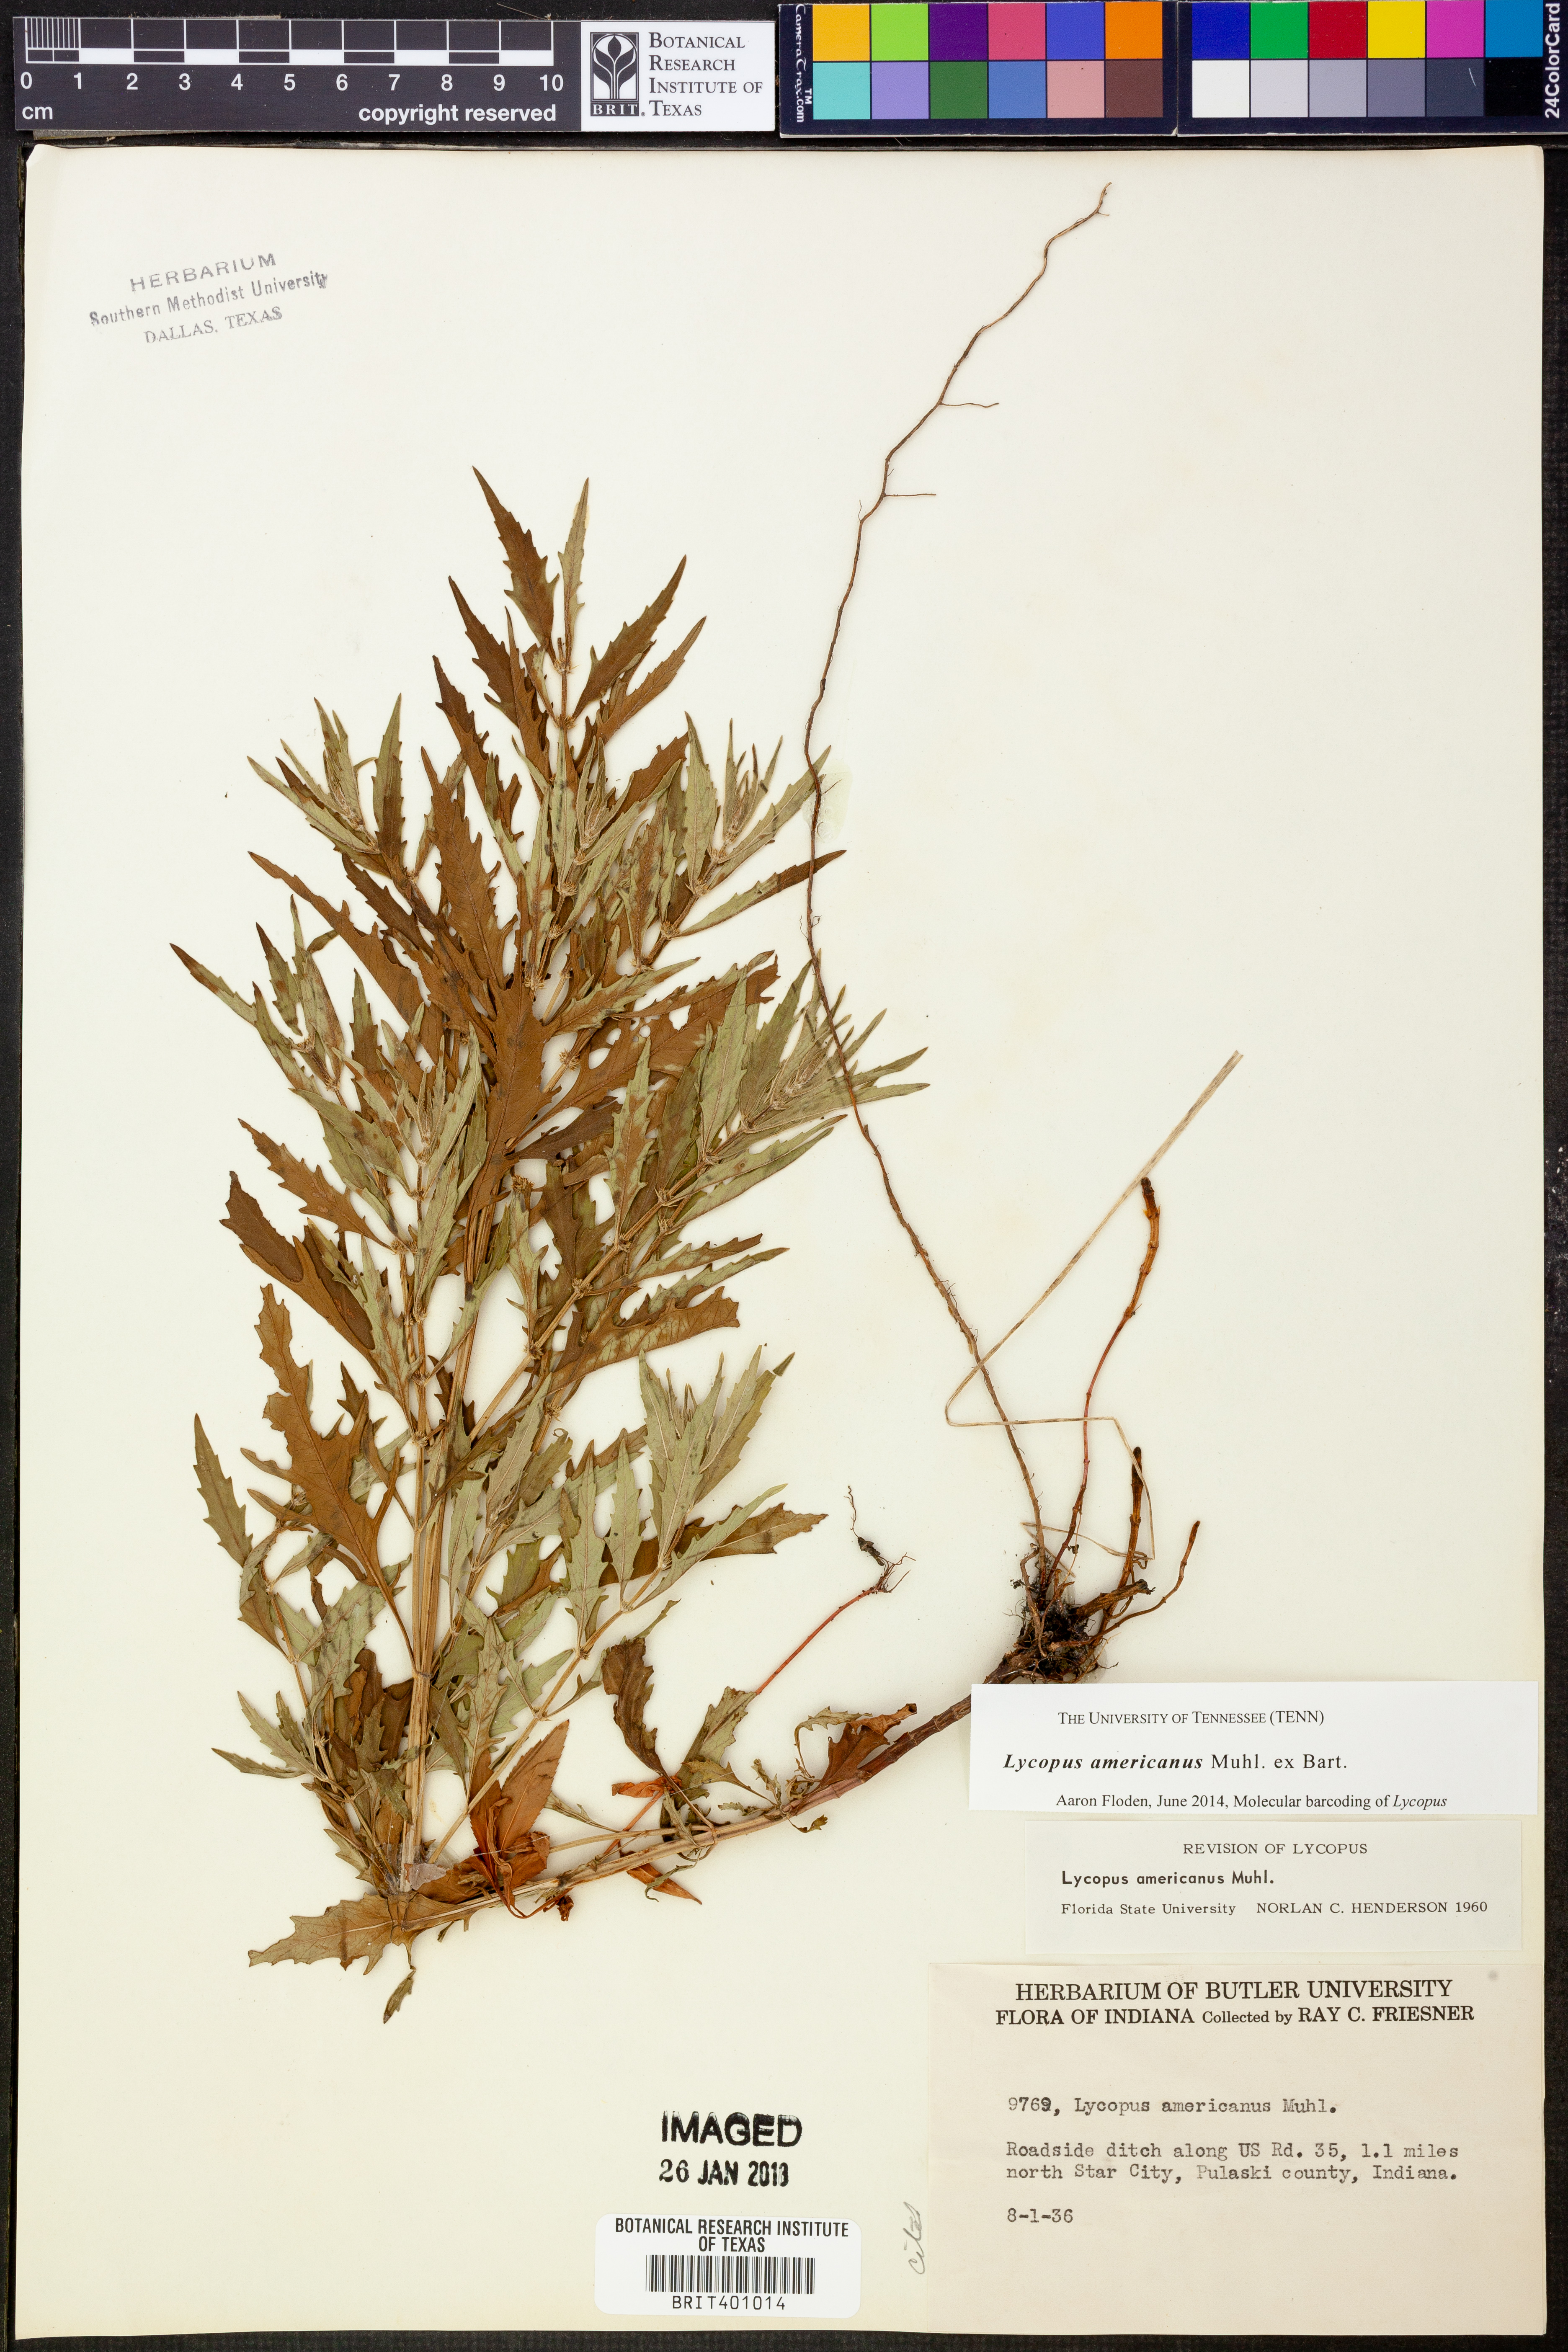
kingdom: Plantae
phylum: Tracheophyta
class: Magnoliopsida
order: Lamiales
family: Lamiaceae
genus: Lycopus
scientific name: Lycopus americanus
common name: American bugleweed
